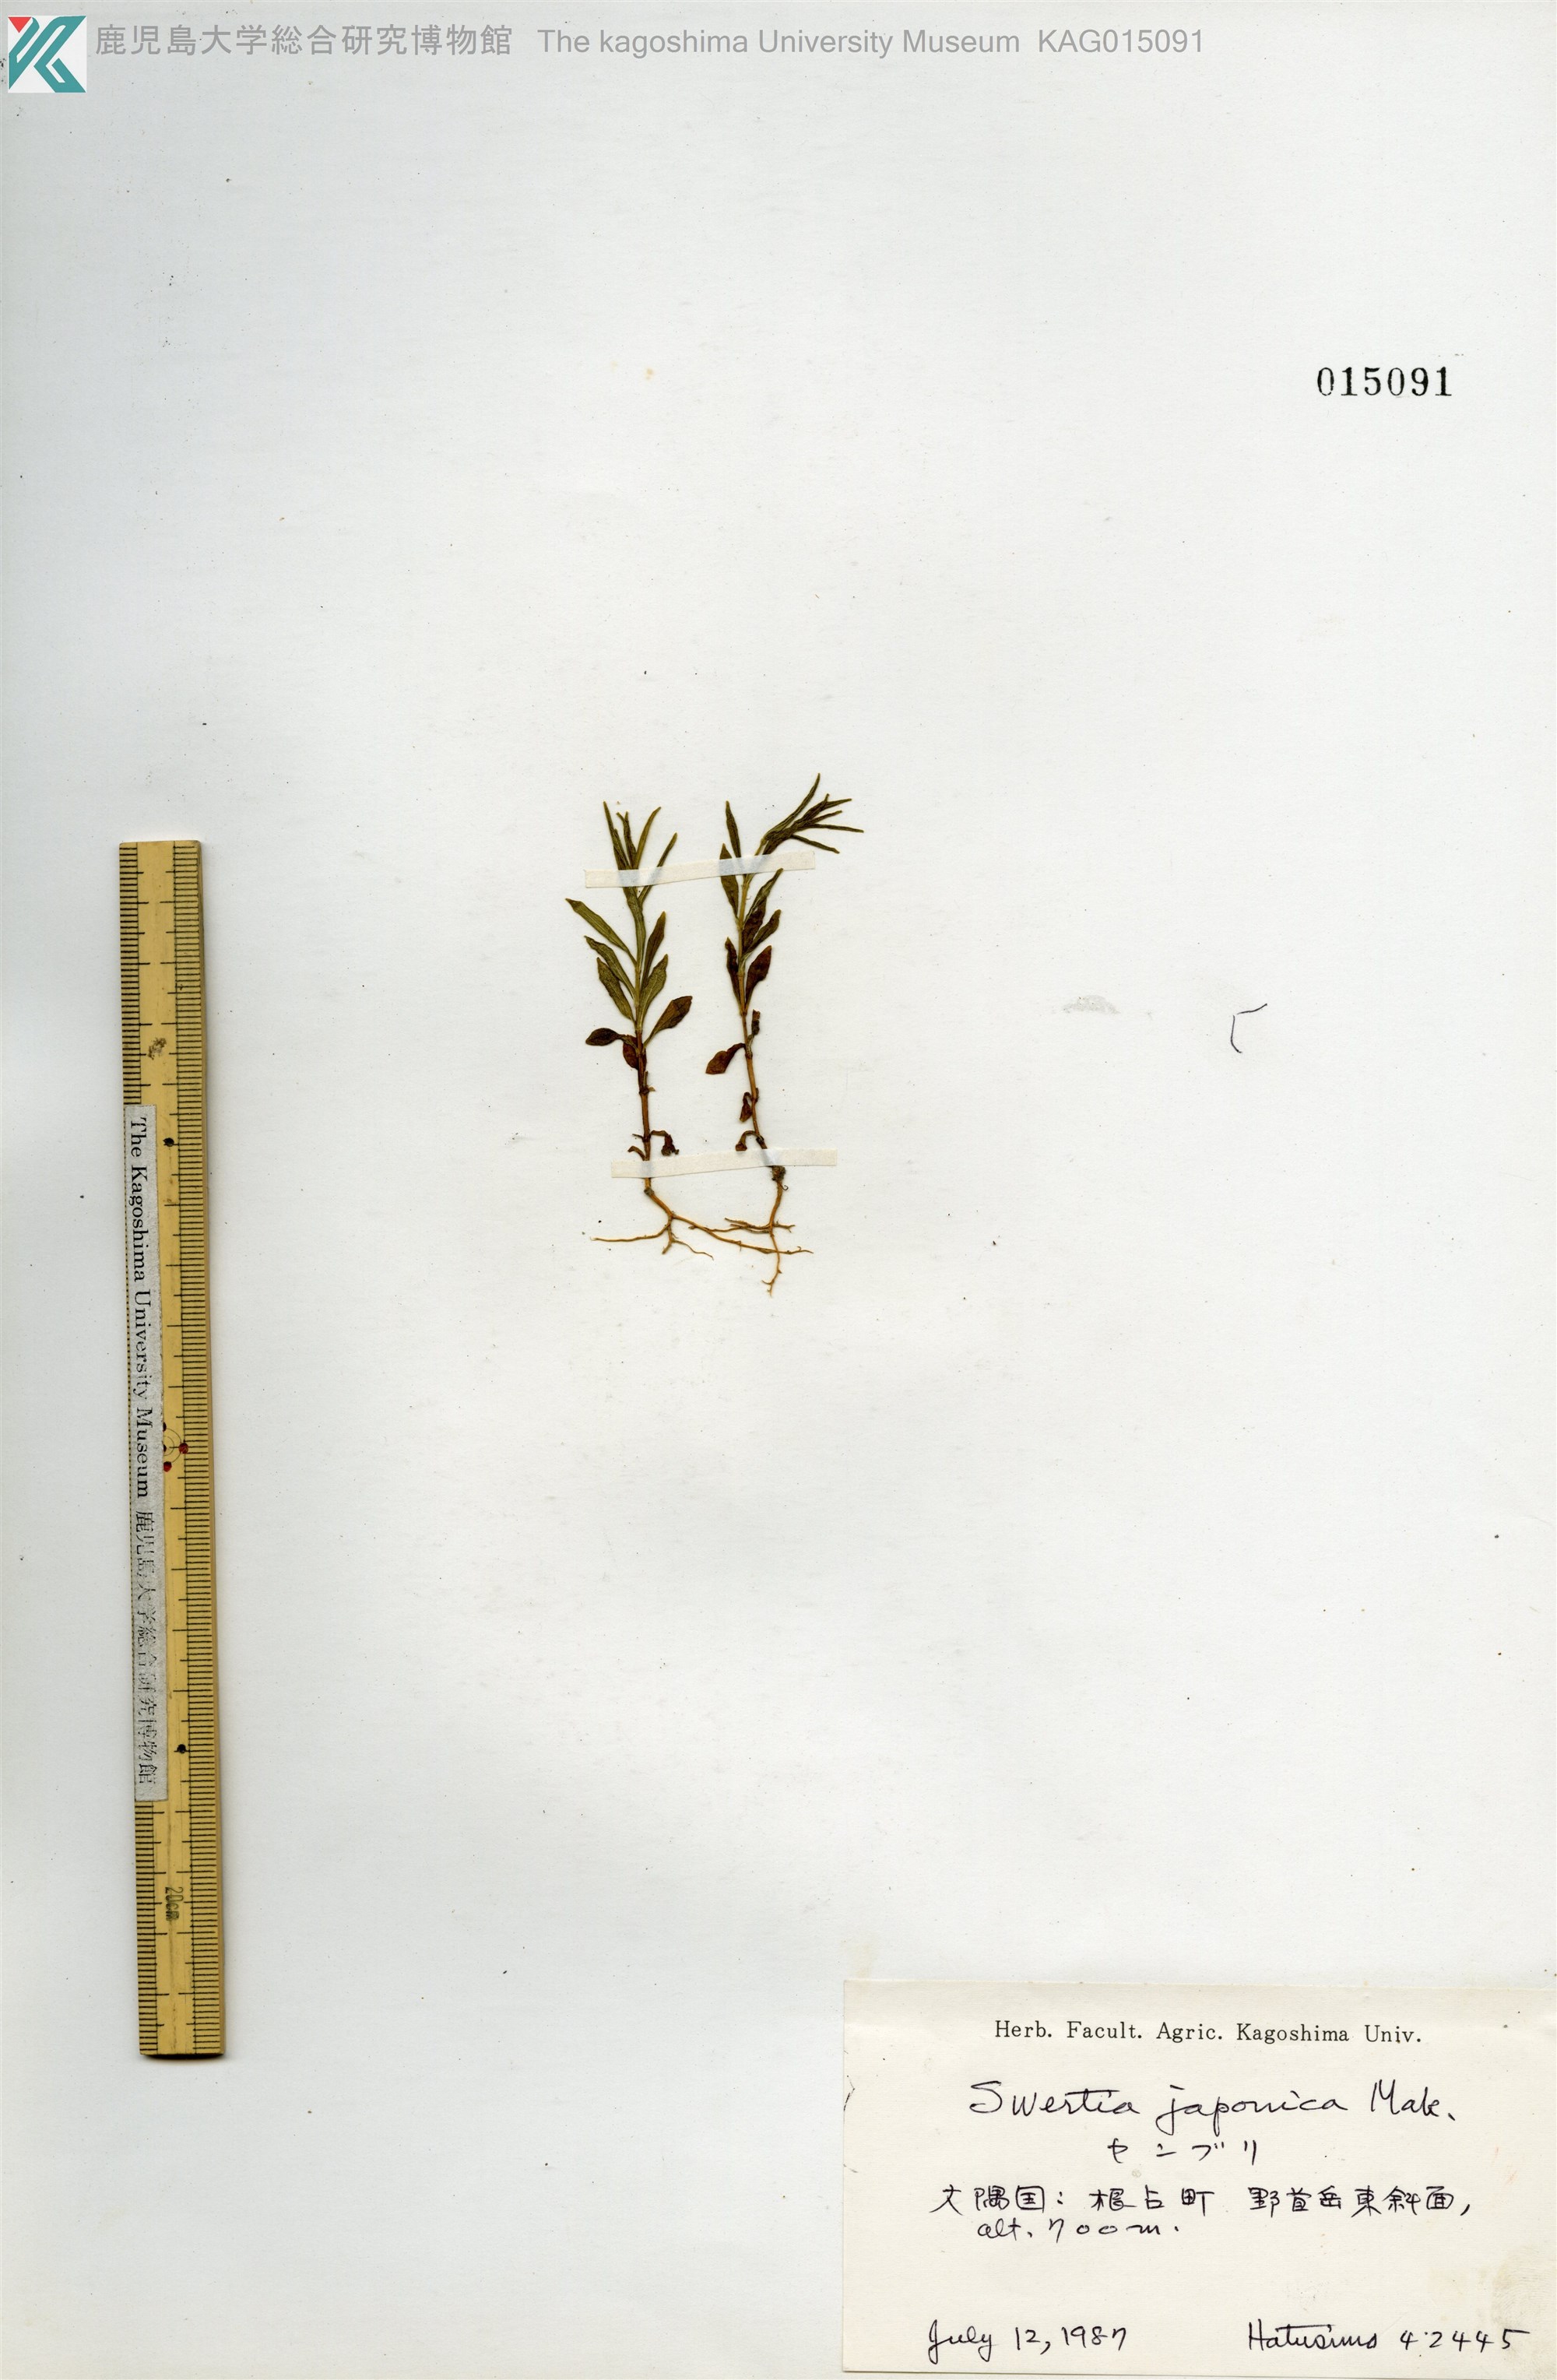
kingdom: Plantae
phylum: Tracheophyta
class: Magnoliopsida
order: Gentianales
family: Gentianaceae
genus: Swertia
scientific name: Swertia japonica
